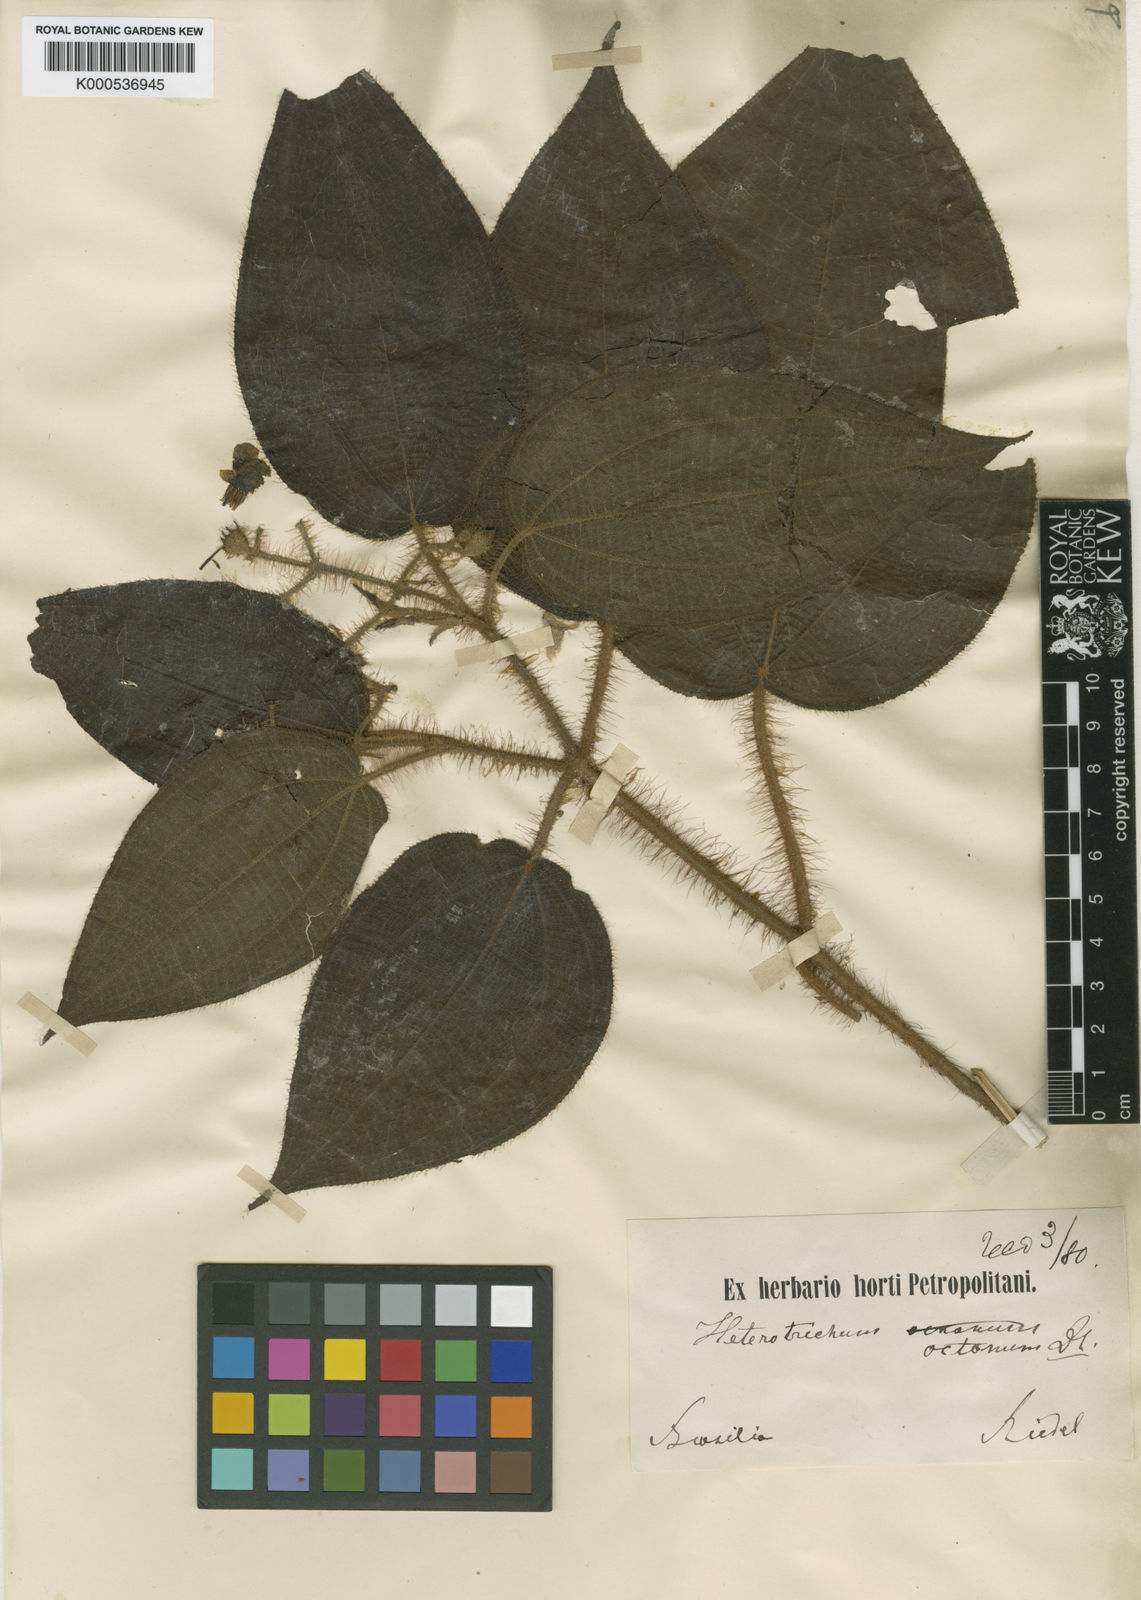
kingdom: Plantae
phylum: Tracheophyta
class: Magnoliopsida
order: Myrtales
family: Melastomataceae
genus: Miconia
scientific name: Miconia octona
